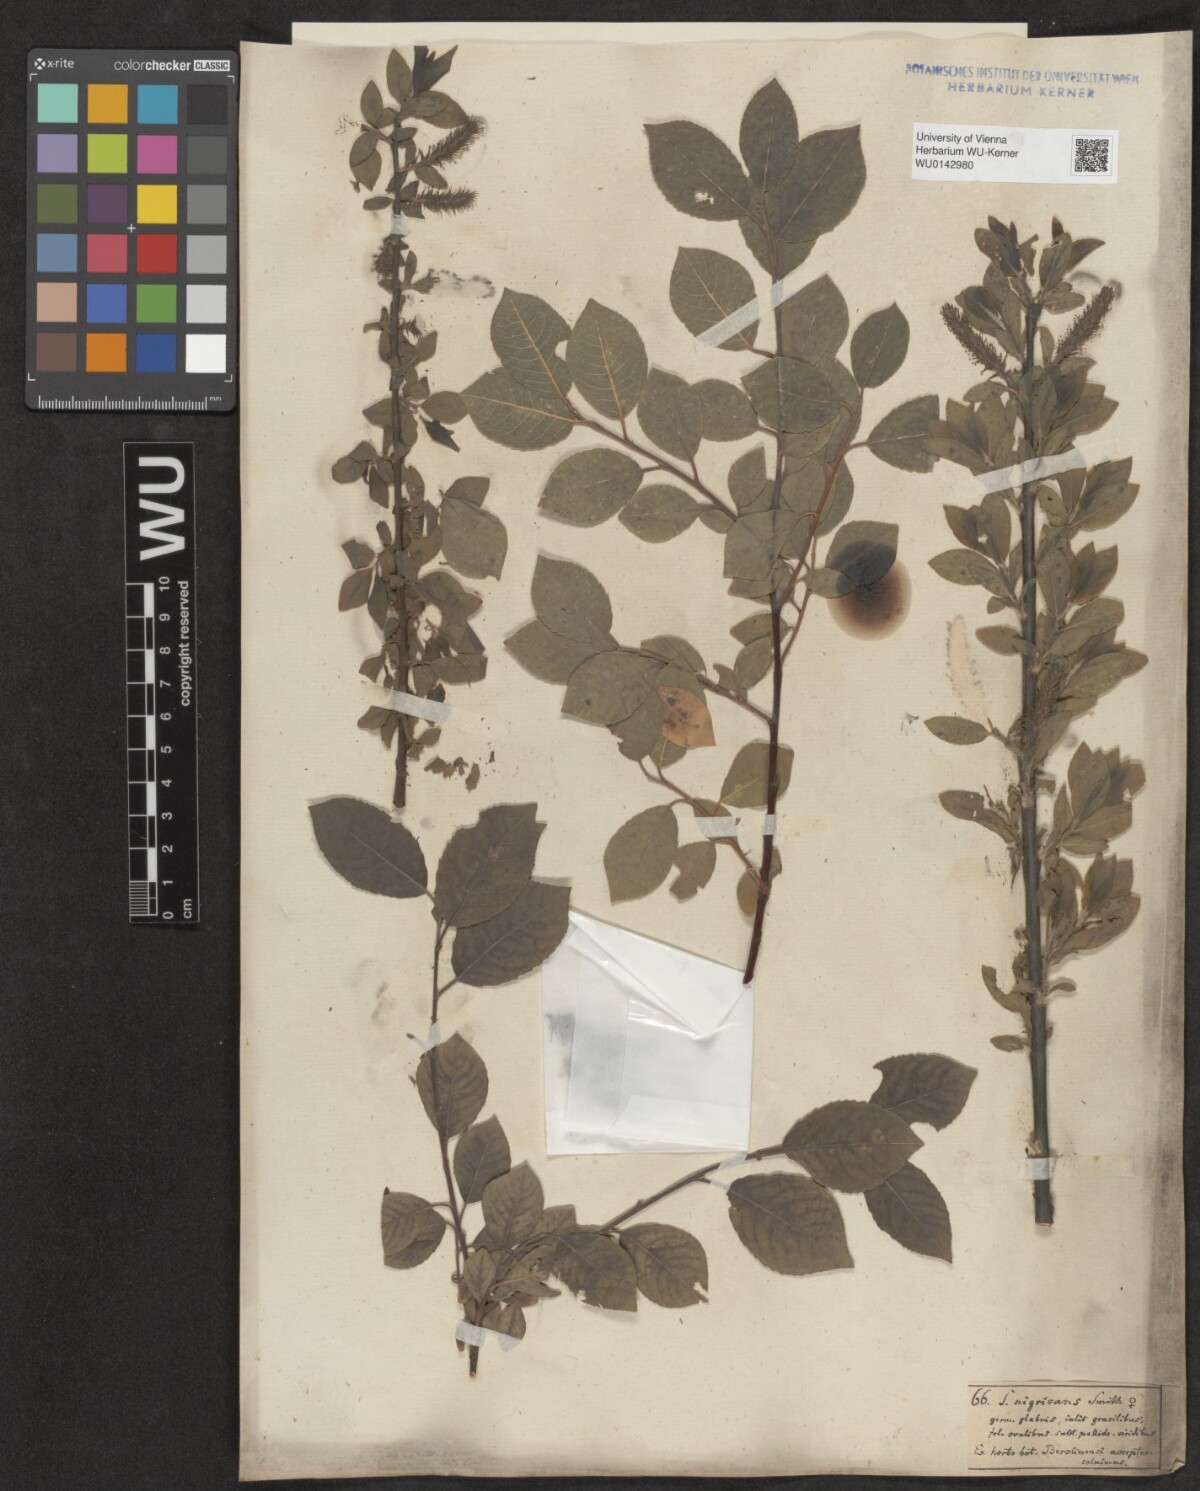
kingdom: Plantae
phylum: Tracheophyta
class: Magnoliopsida
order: Malpighiales
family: Salicaceae
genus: Salix
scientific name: Salix myrsinifolia
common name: Dark-leaved willow
